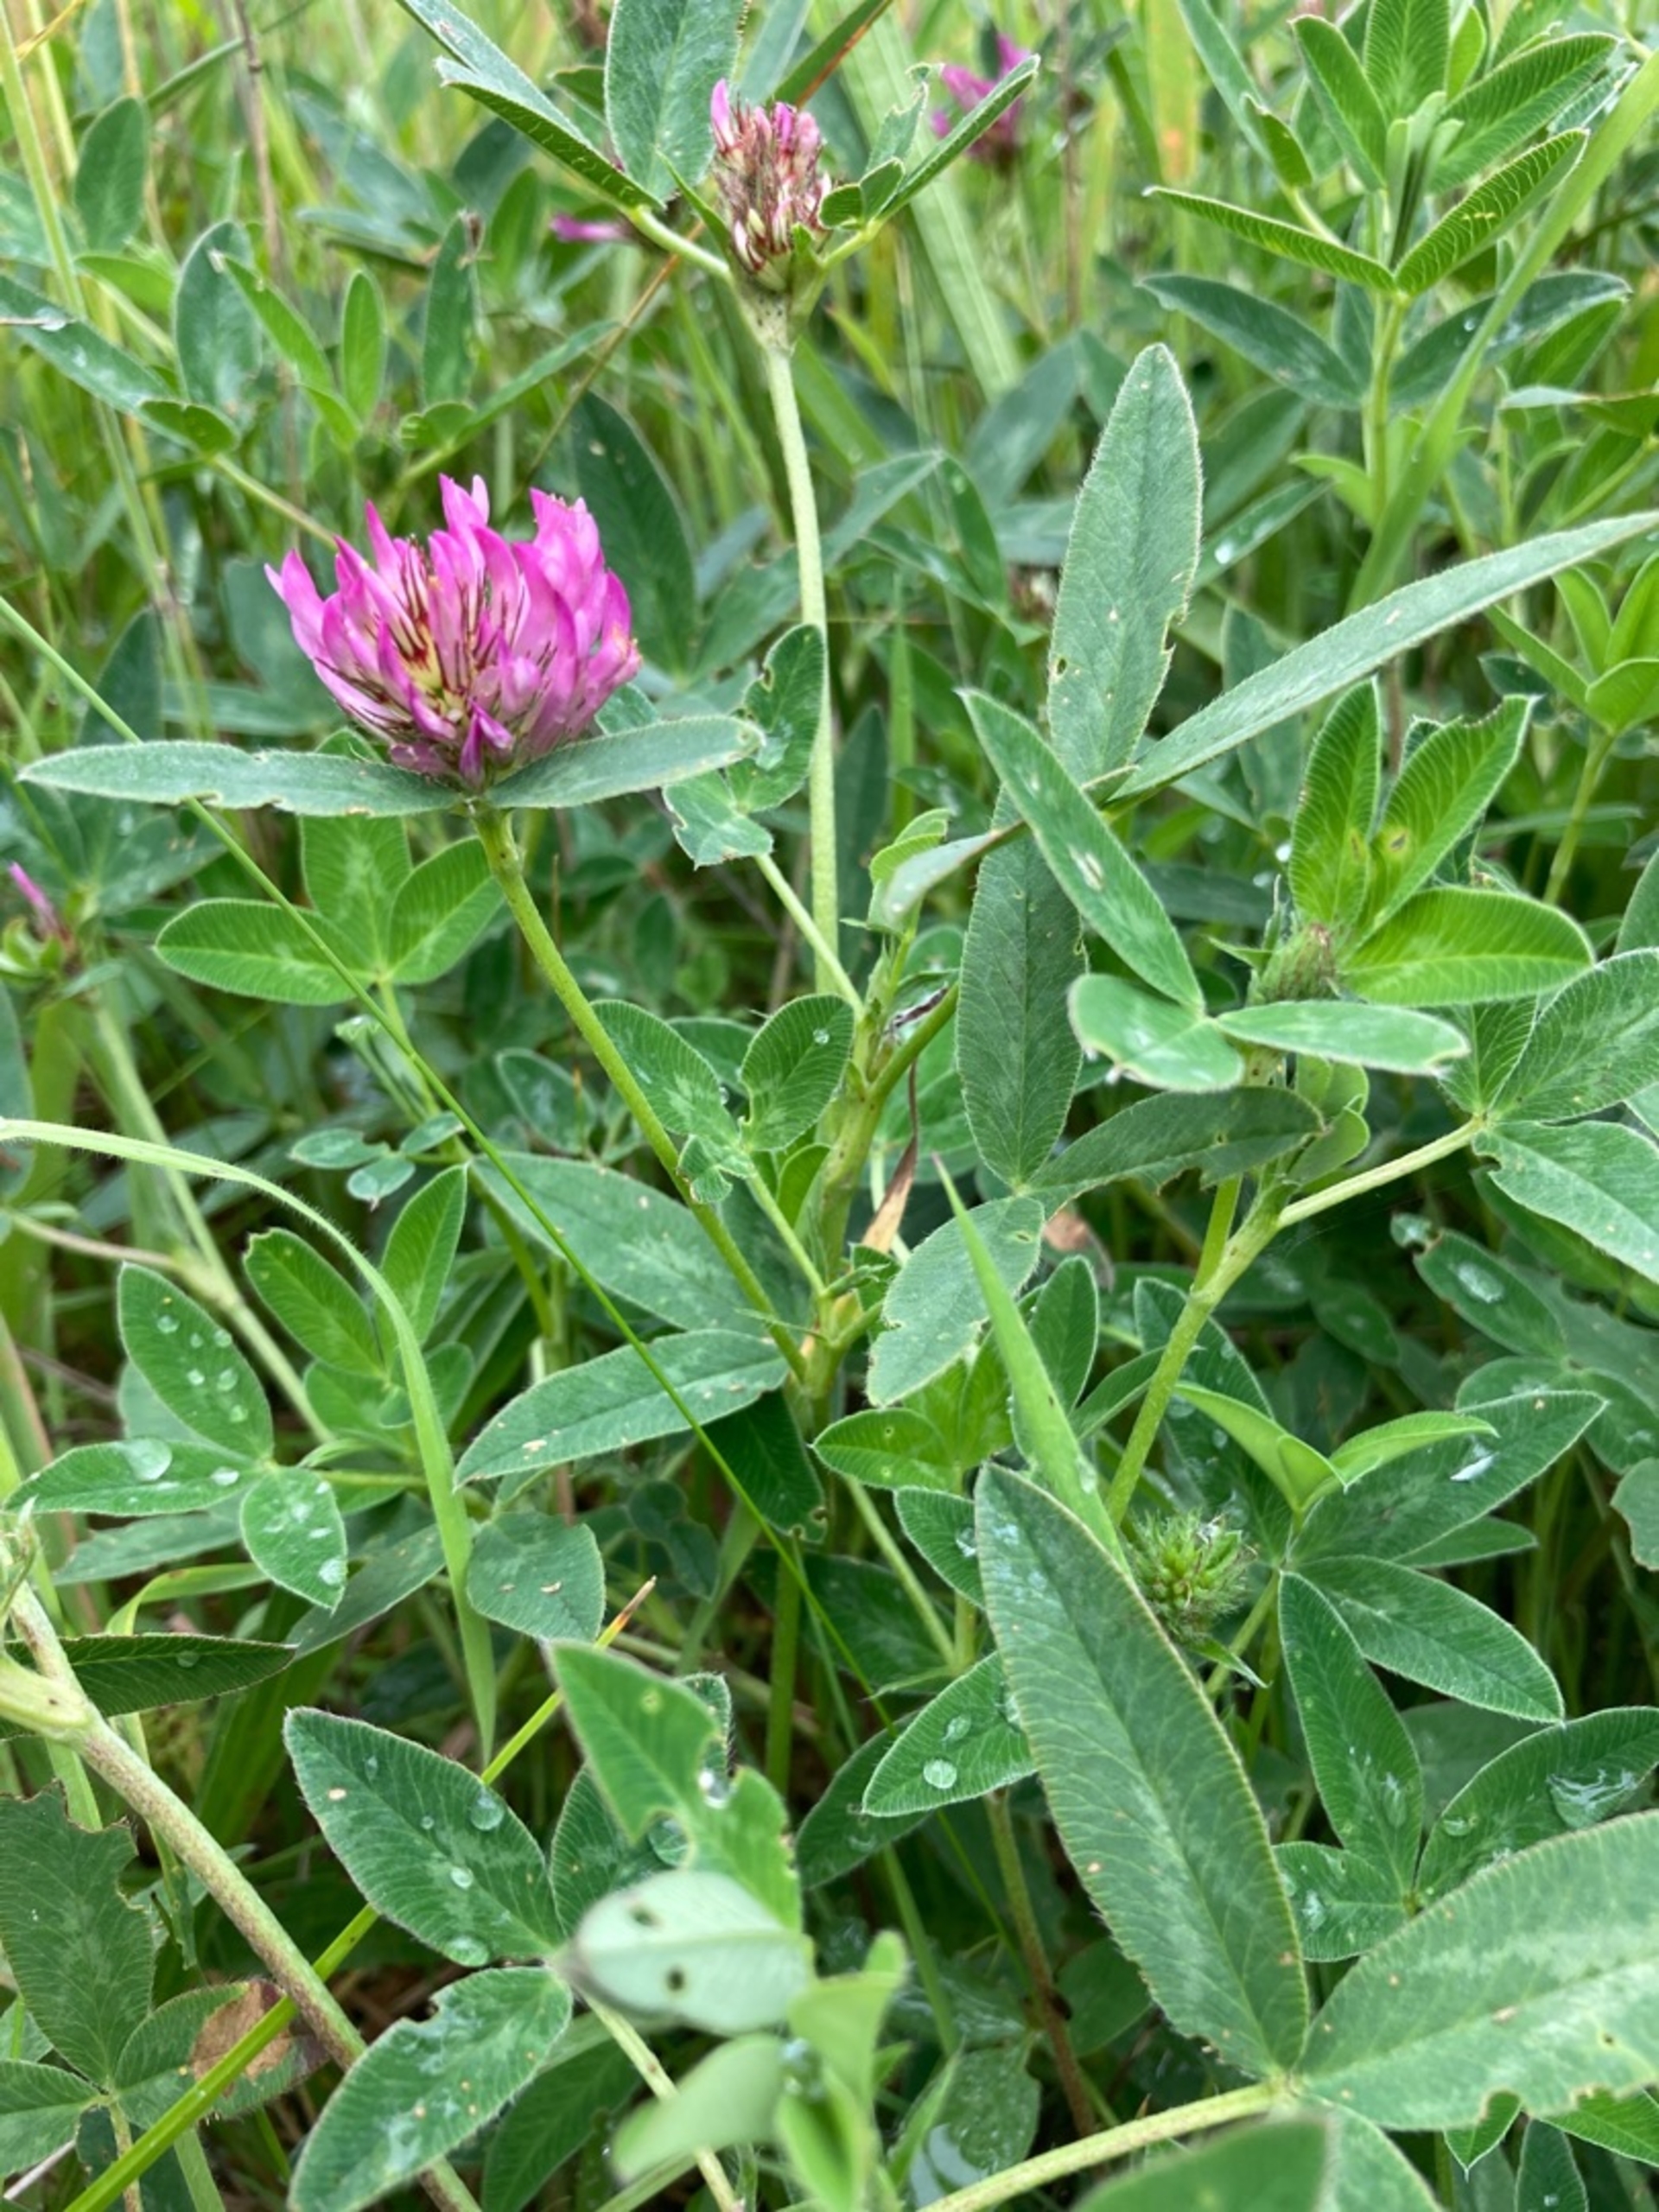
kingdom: Plantae
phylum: Tracheophyta
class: Magnoliopsida
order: Fabales
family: Fabaceae
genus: Trifolium
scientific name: Trifolium medium
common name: Bugtet kløver
